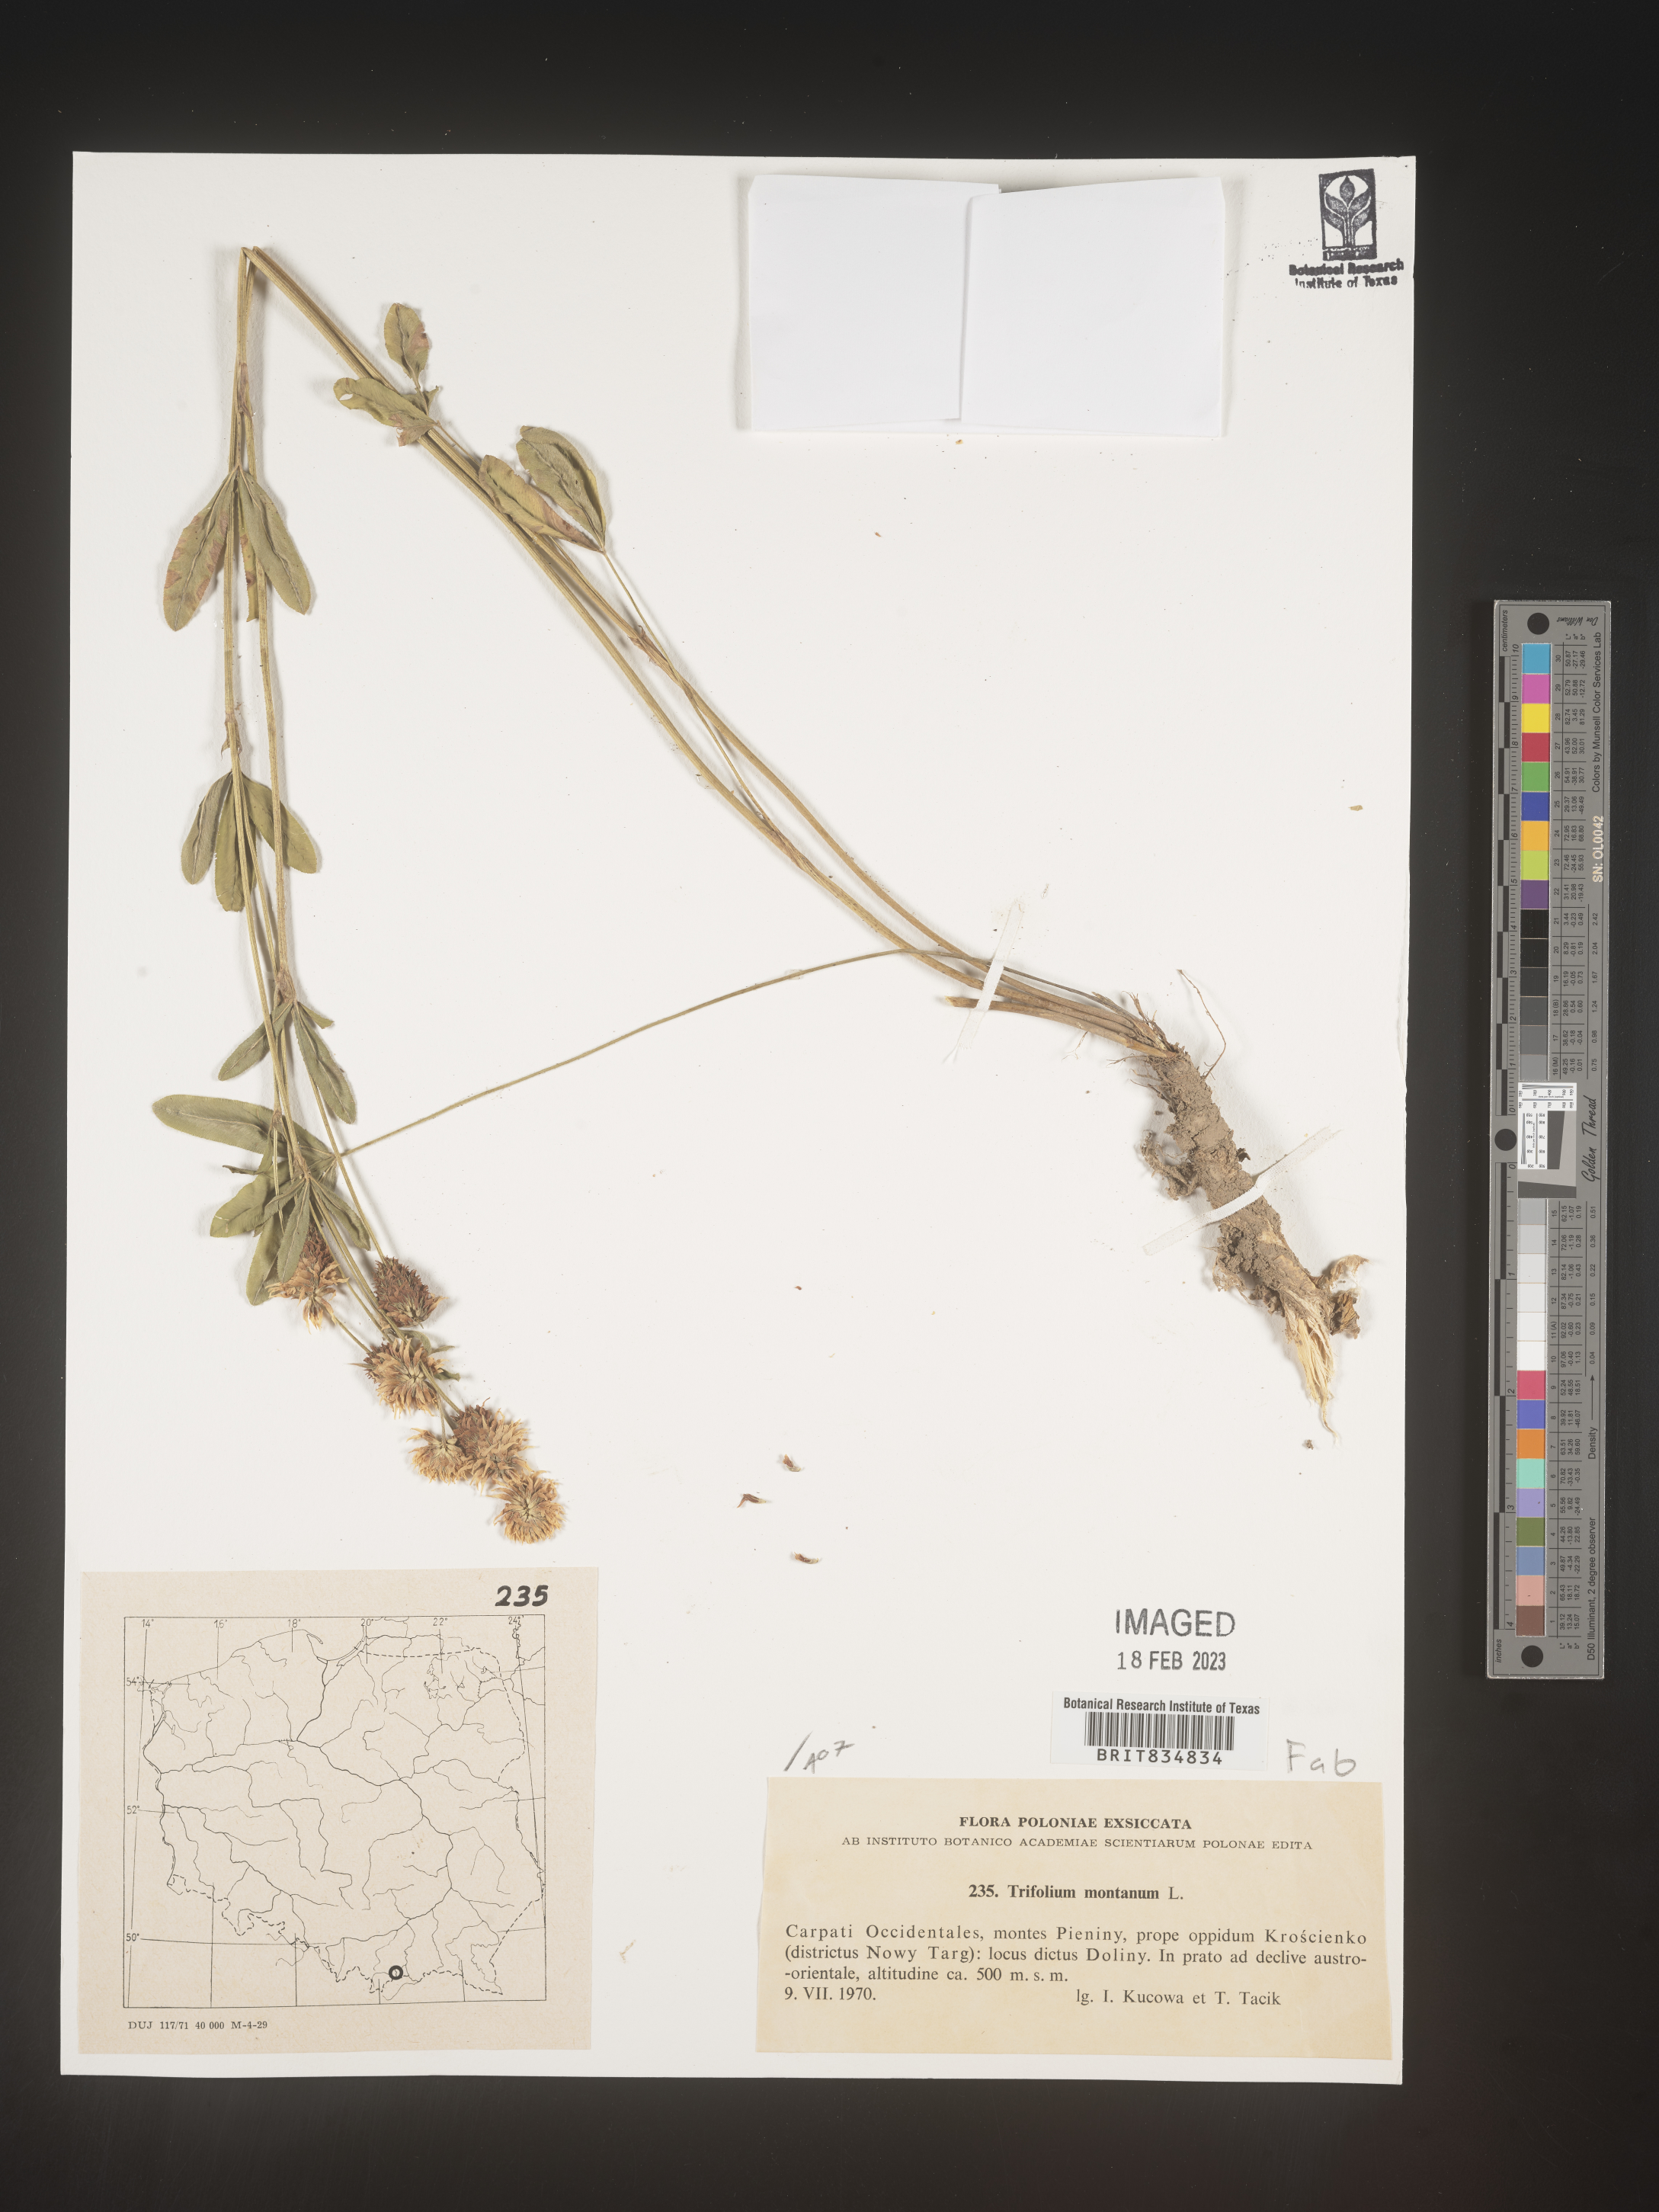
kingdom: Plantae
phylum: Tracheophyta
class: Magnoliopsida
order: Fabales
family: Fabaceae
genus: Trifolium
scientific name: Trifolium
